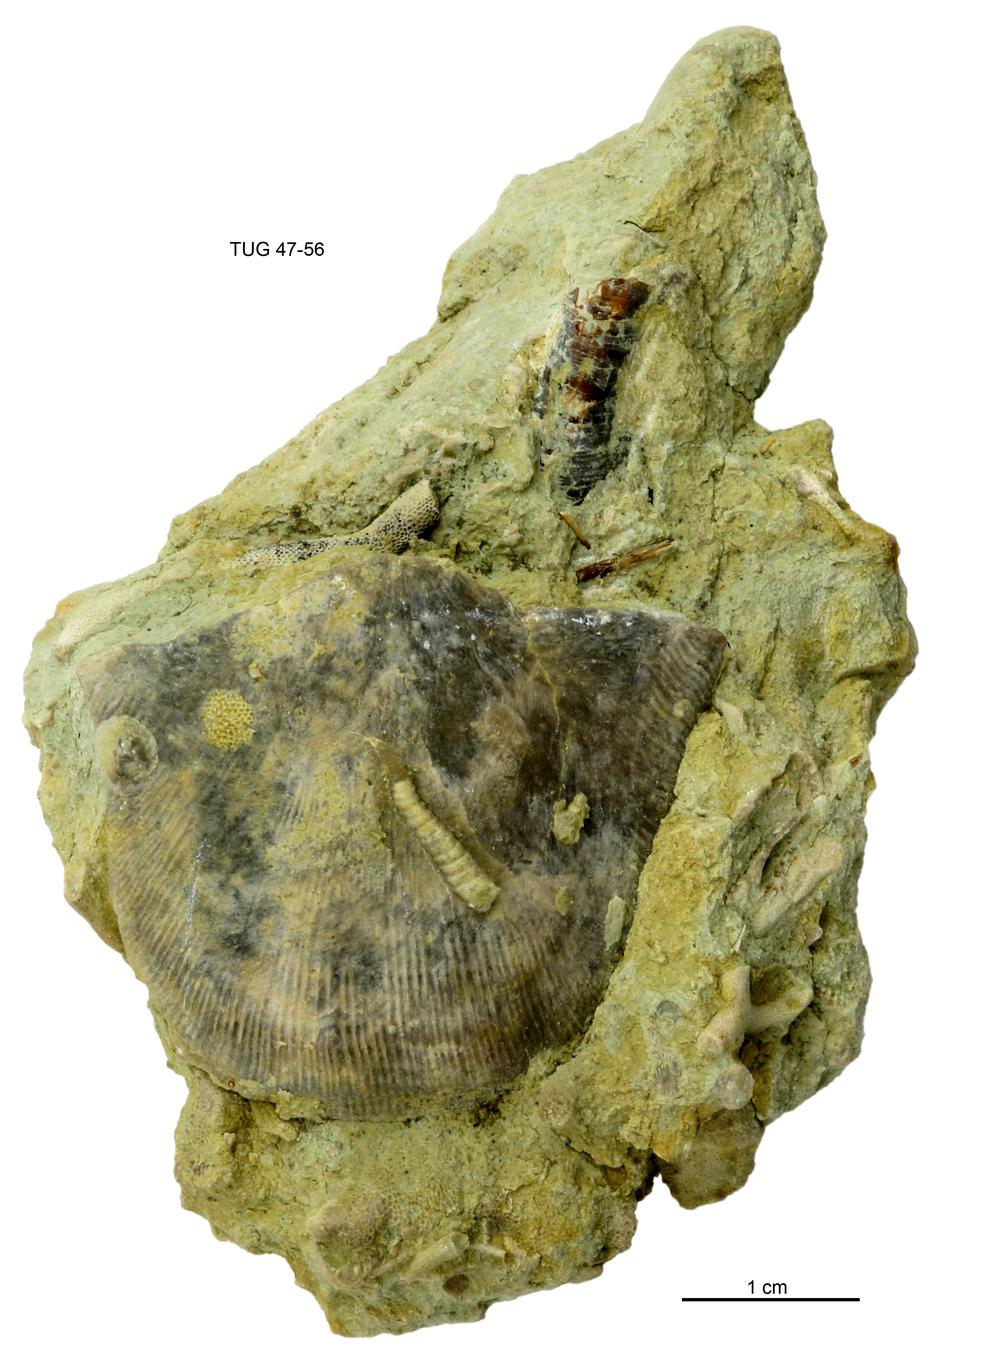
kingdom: Animalia
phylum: Brachiopoda
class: Rhynchonellata
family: Clitambonitidae
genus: Clinambon
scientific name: Clinambon
